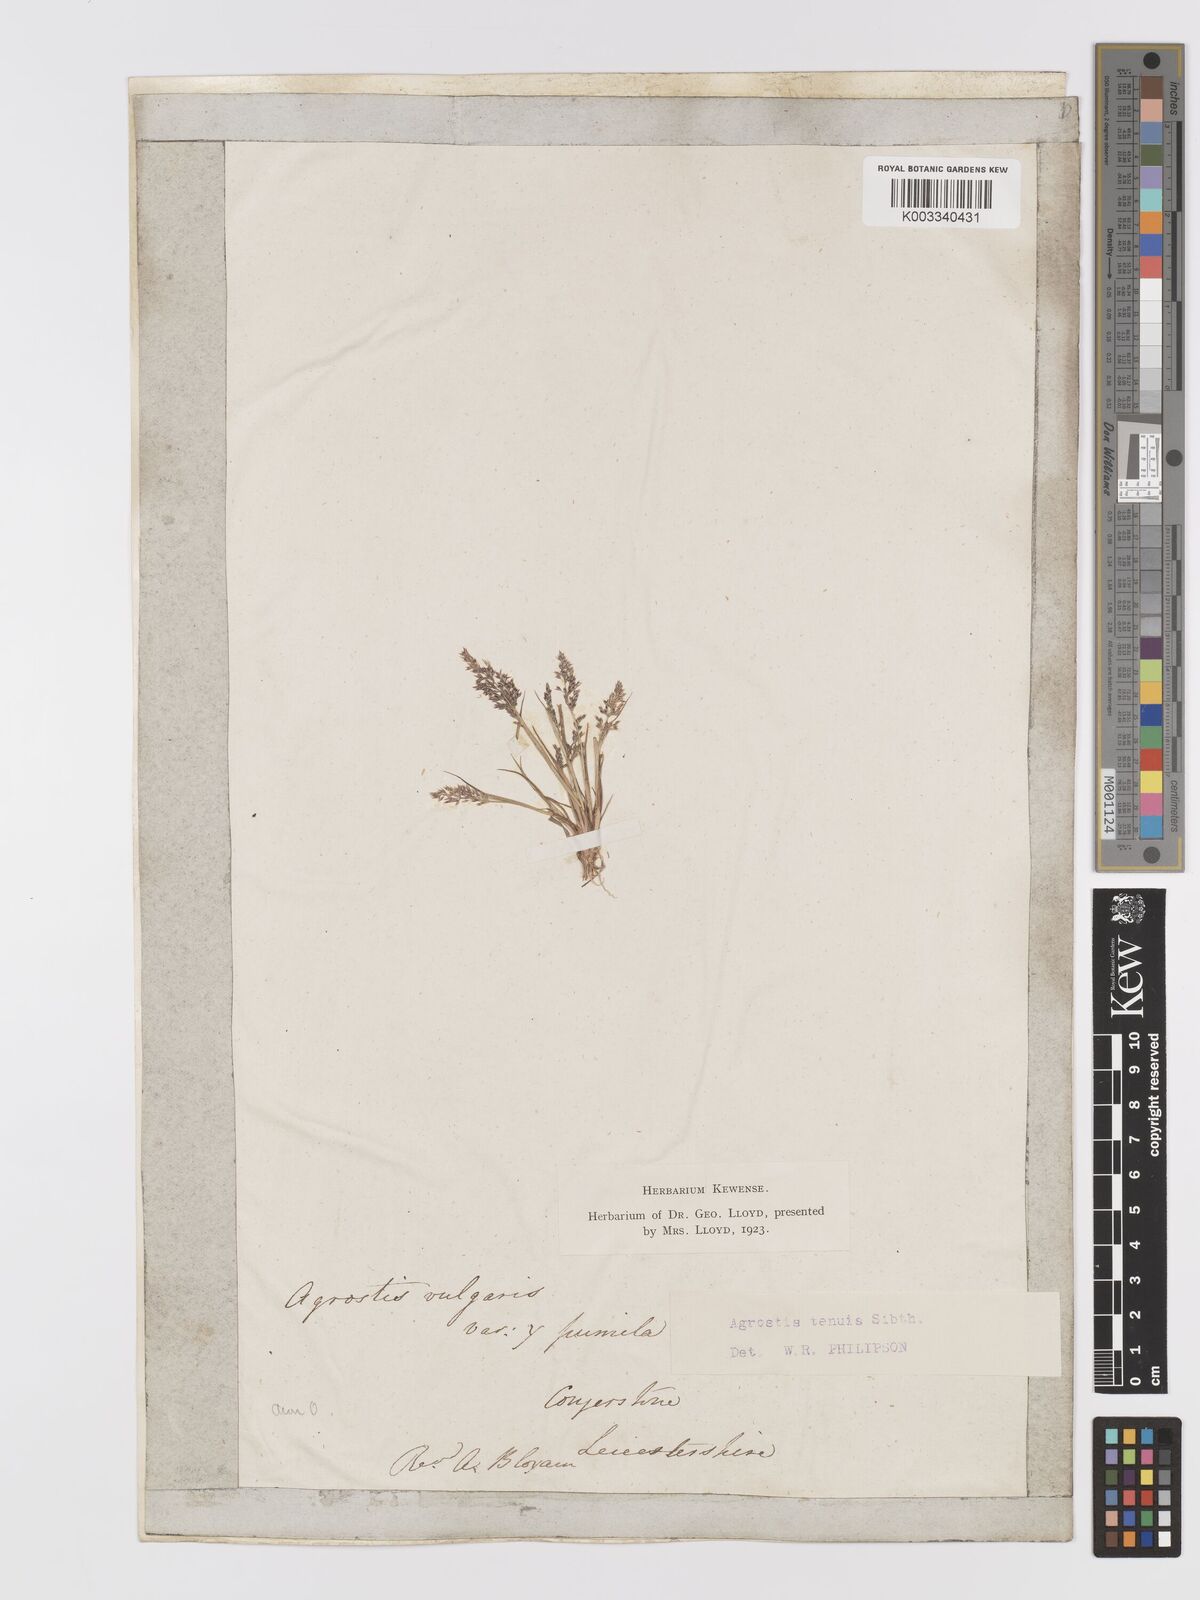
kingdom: Plantae
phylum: Tracheophyta
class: Liliopsida
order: Poales
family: Poaceae
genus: Agrostis
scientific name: Agrostis capillaris
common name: Colonial bentgrass
